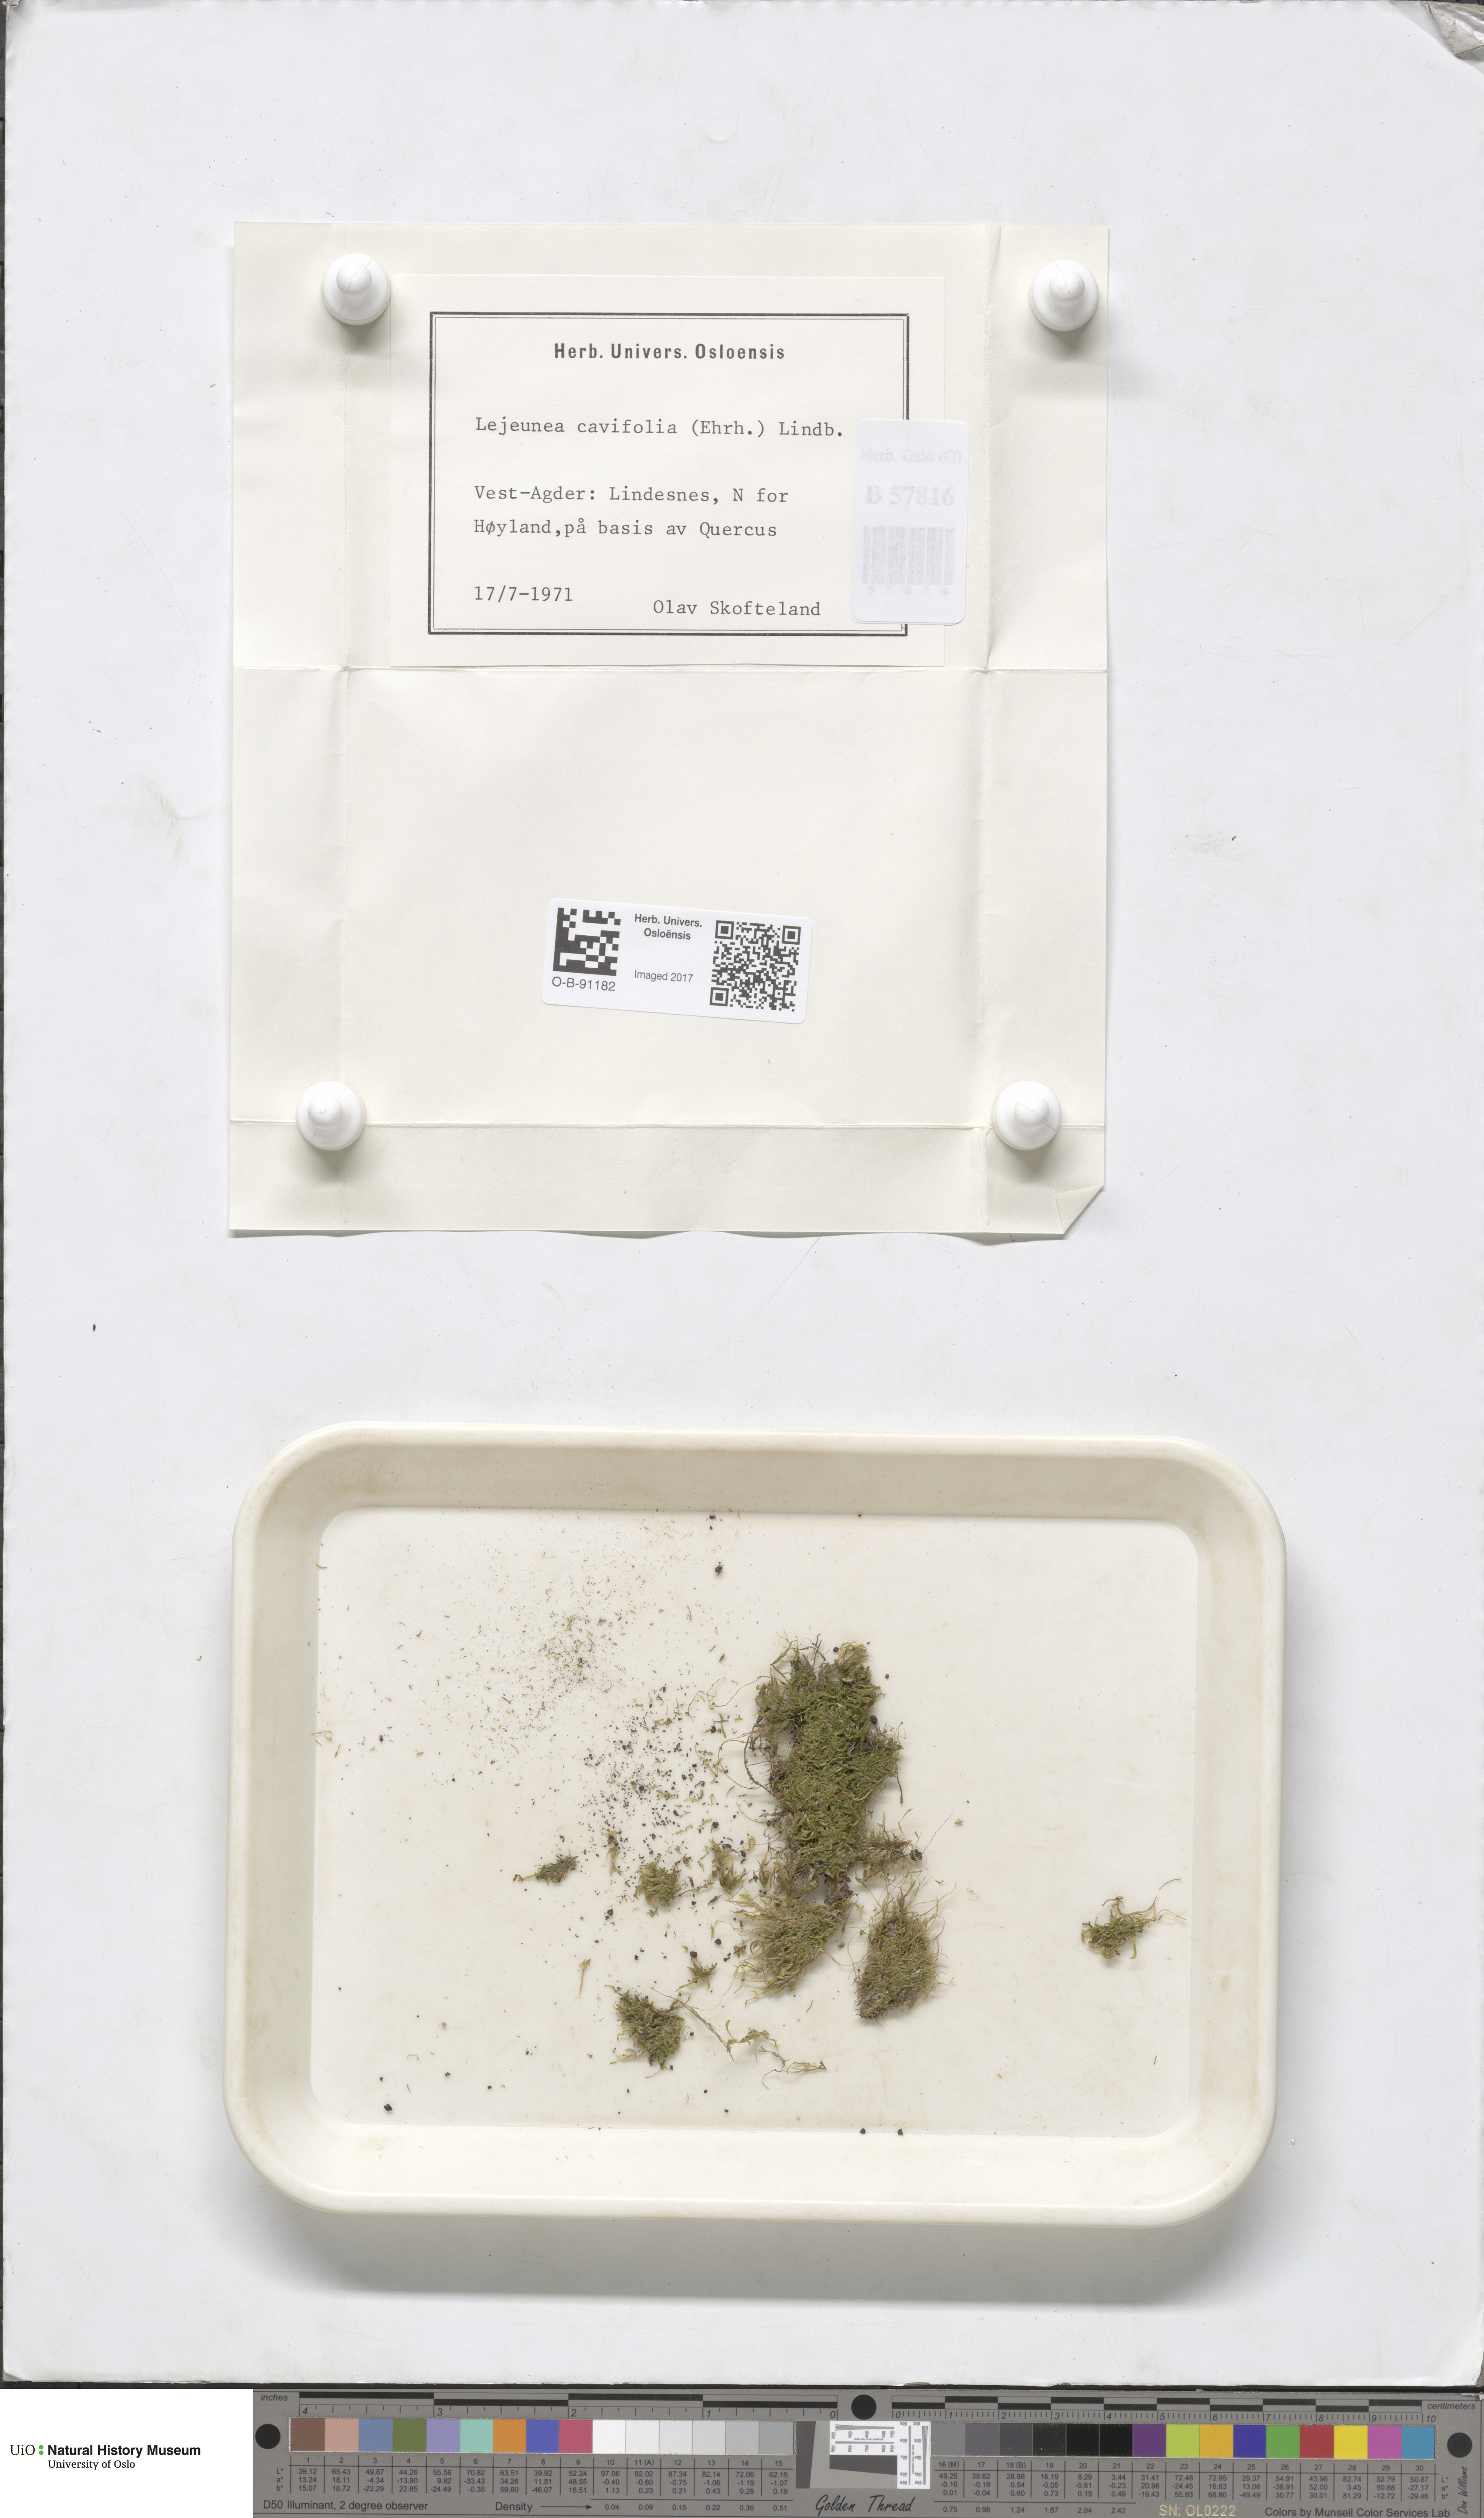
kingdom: Plantae
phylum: Marchantiophyta
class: Jungermanniopsida
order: Porellales
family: Lejeuneaceae
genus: Lejeunea
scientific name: Lejeunea cavifolia
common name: Least pouncewort
